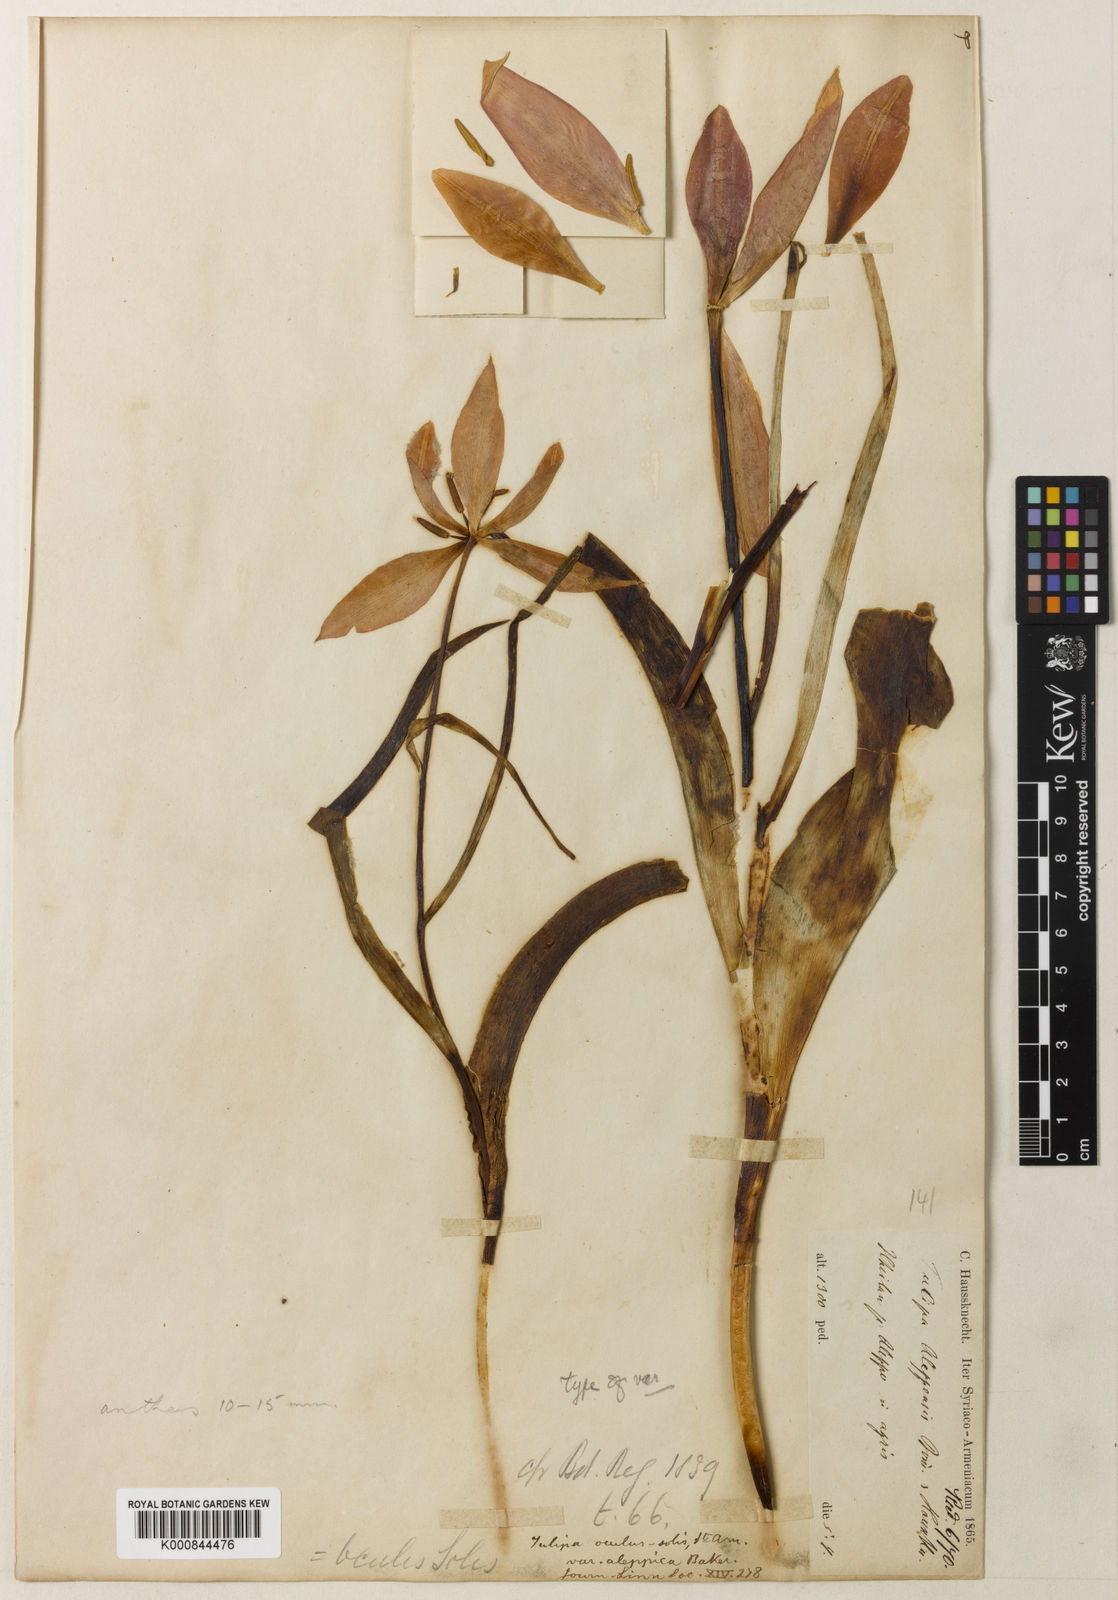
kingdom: Plantae
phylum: Tracheophyta
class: Liliopsida
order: Liliales
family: Liliaceae
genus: Tulipa
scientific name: Tulipa aleppensis
